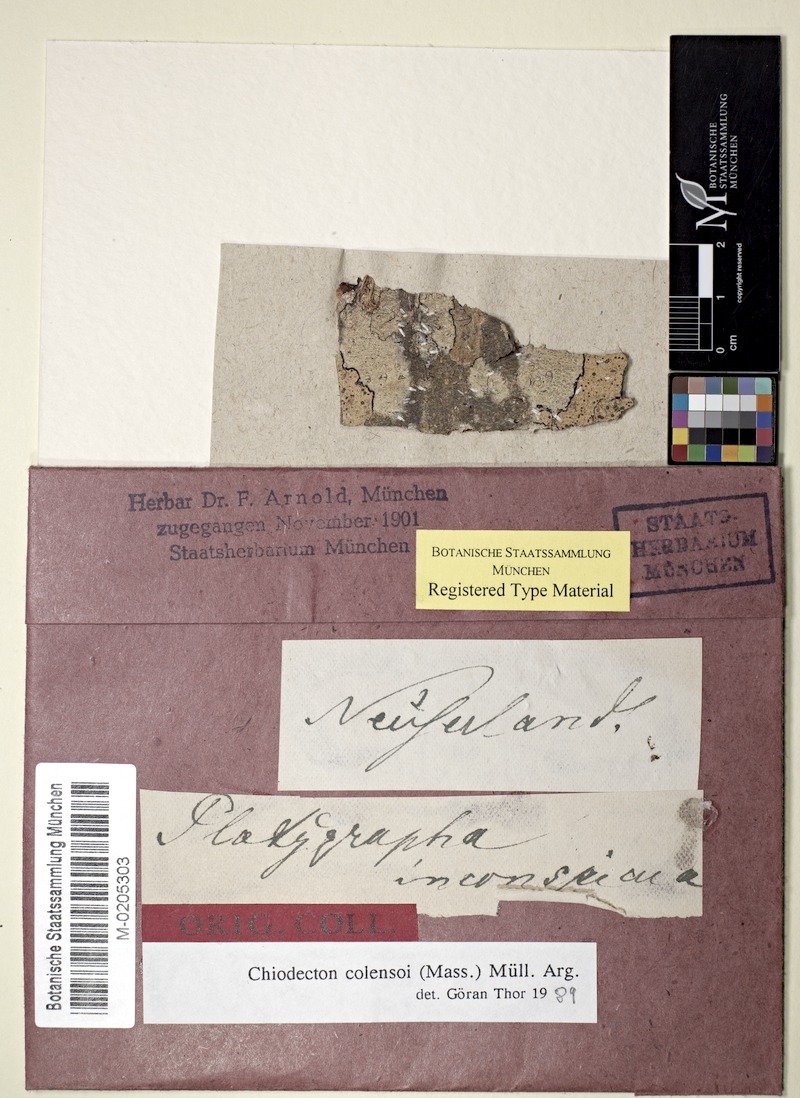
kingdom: Fungi
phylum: Ascomycota
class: Arthoniomycetes
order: Arthoniales
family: Roccellaceae
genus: Chiodecton
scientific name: Chiodecton colensoi
